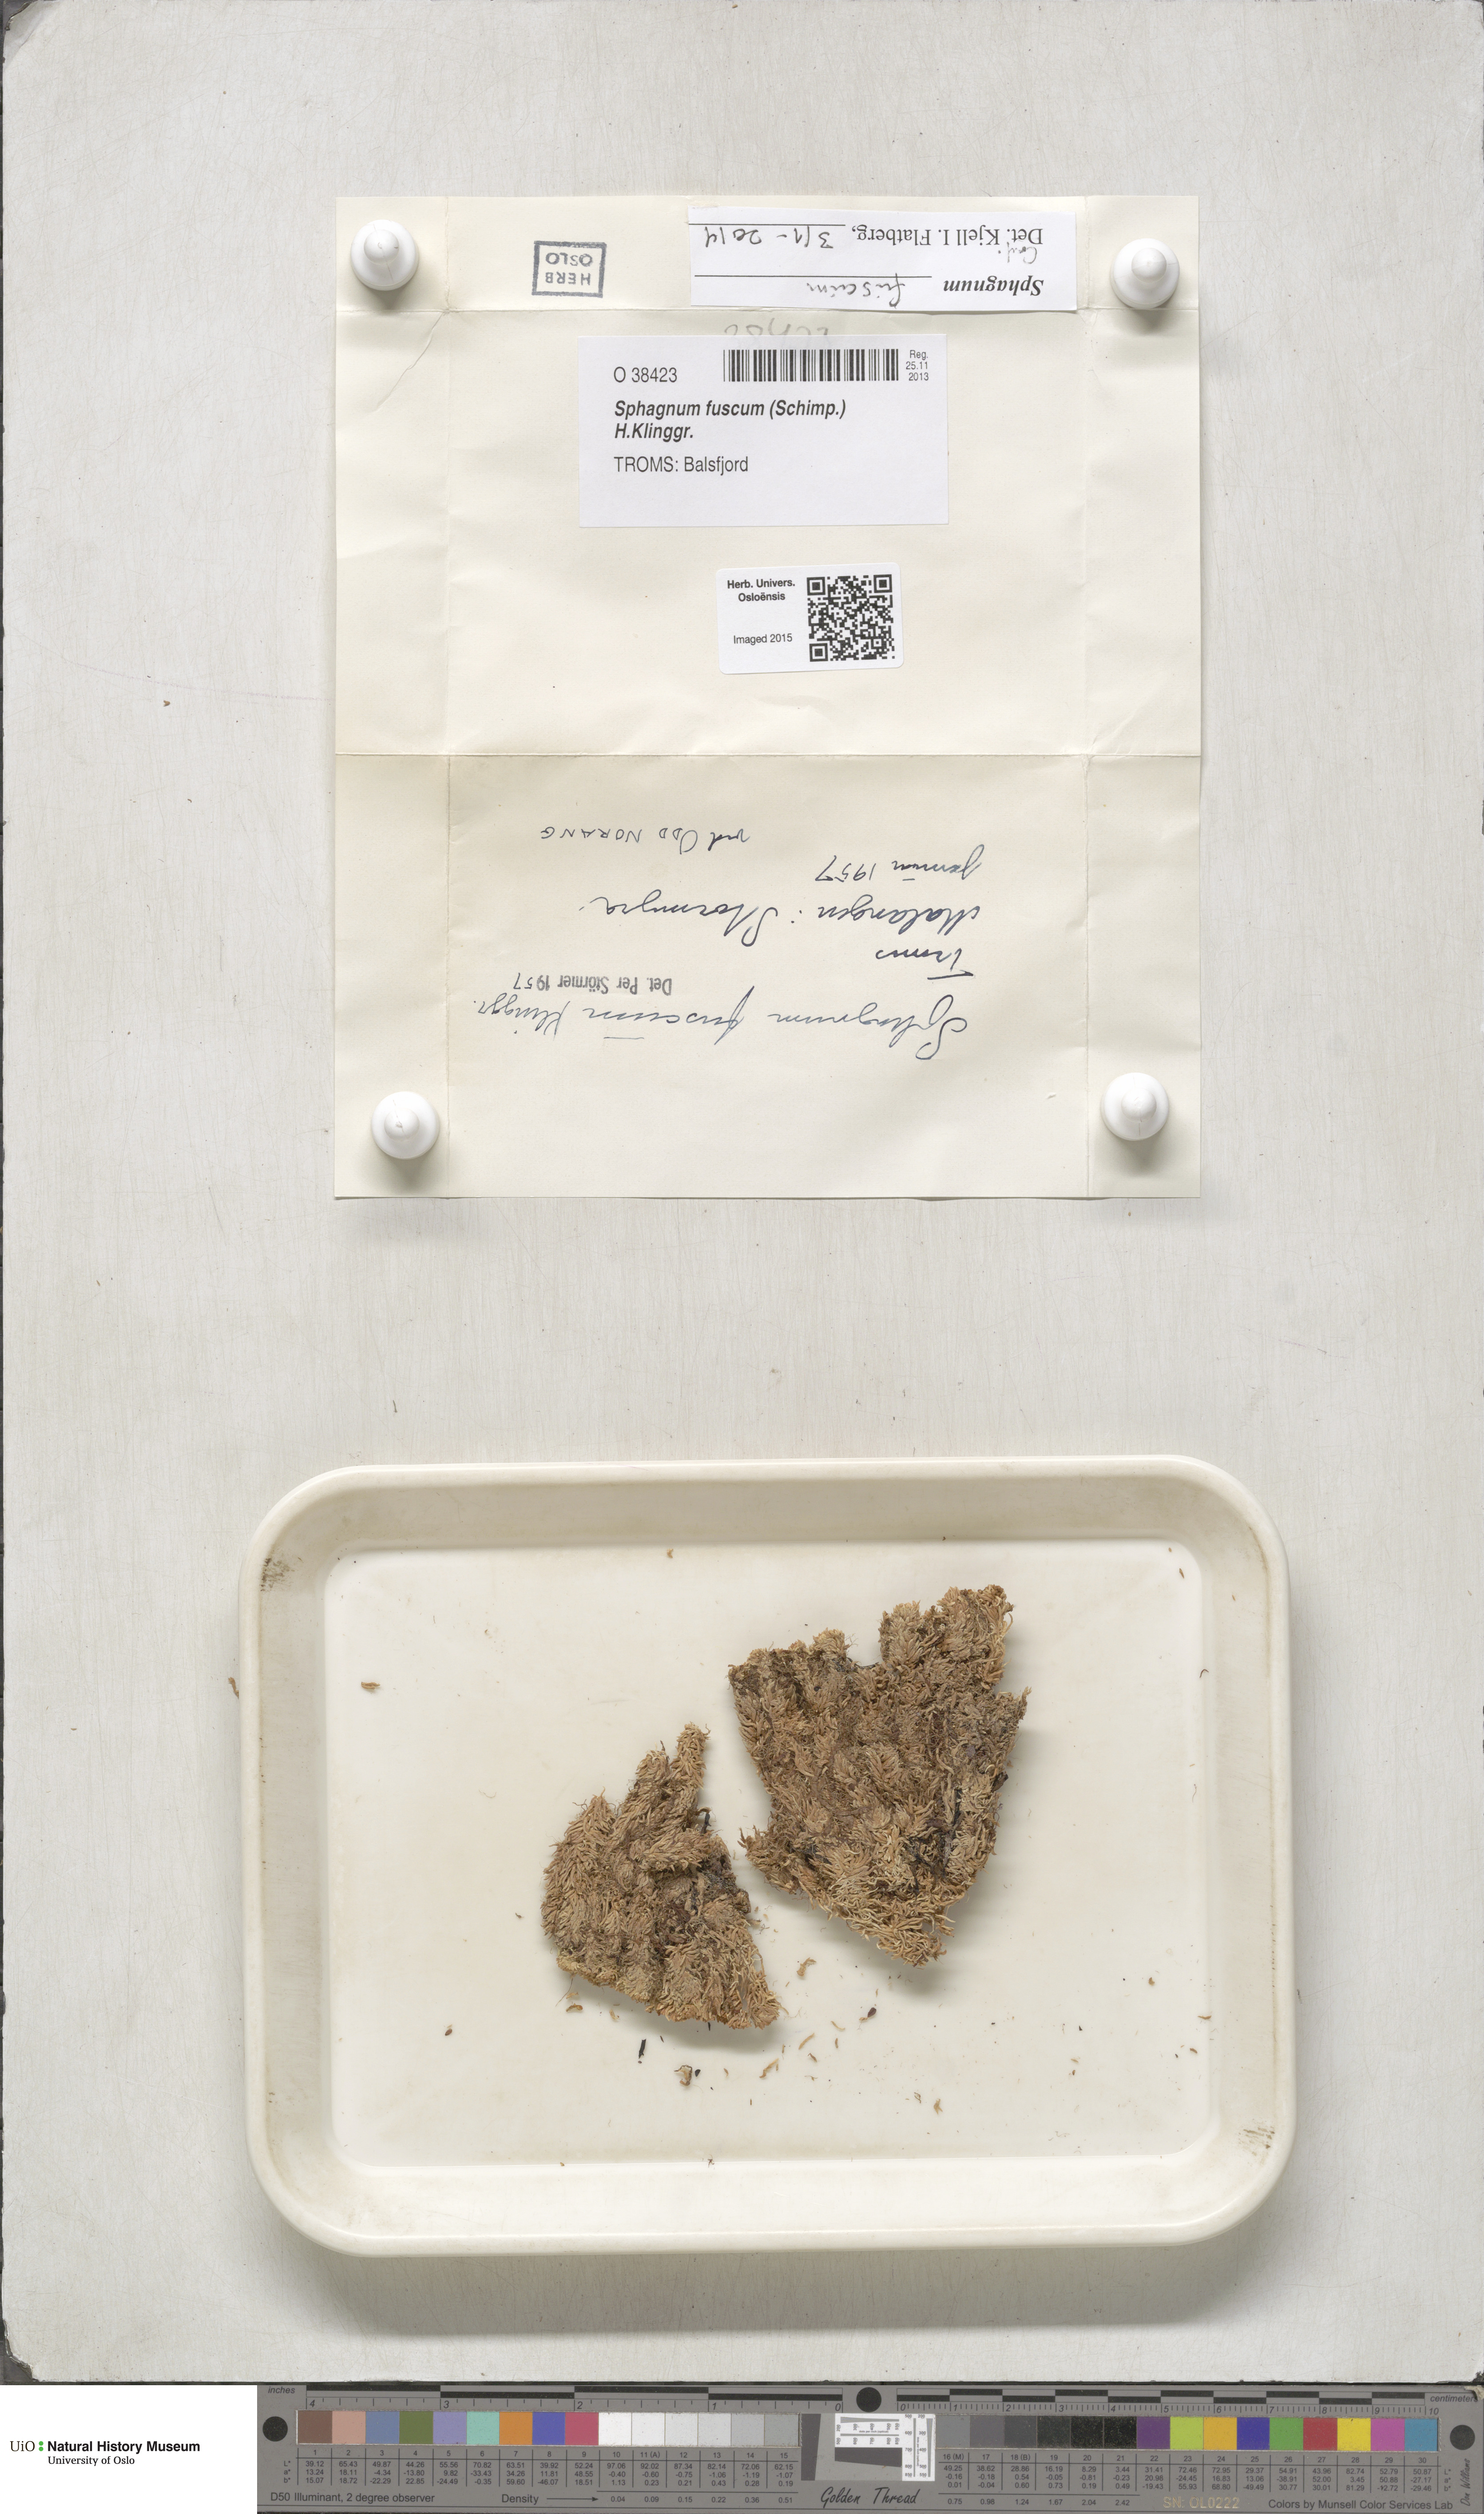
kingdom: Plantae
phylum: Bryophyta
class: Sphagnopsida
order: Sphagnales
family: Sphagnaceae
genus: Sphagnum
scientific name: Sphagnum fuscum
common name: Brown peat moss
